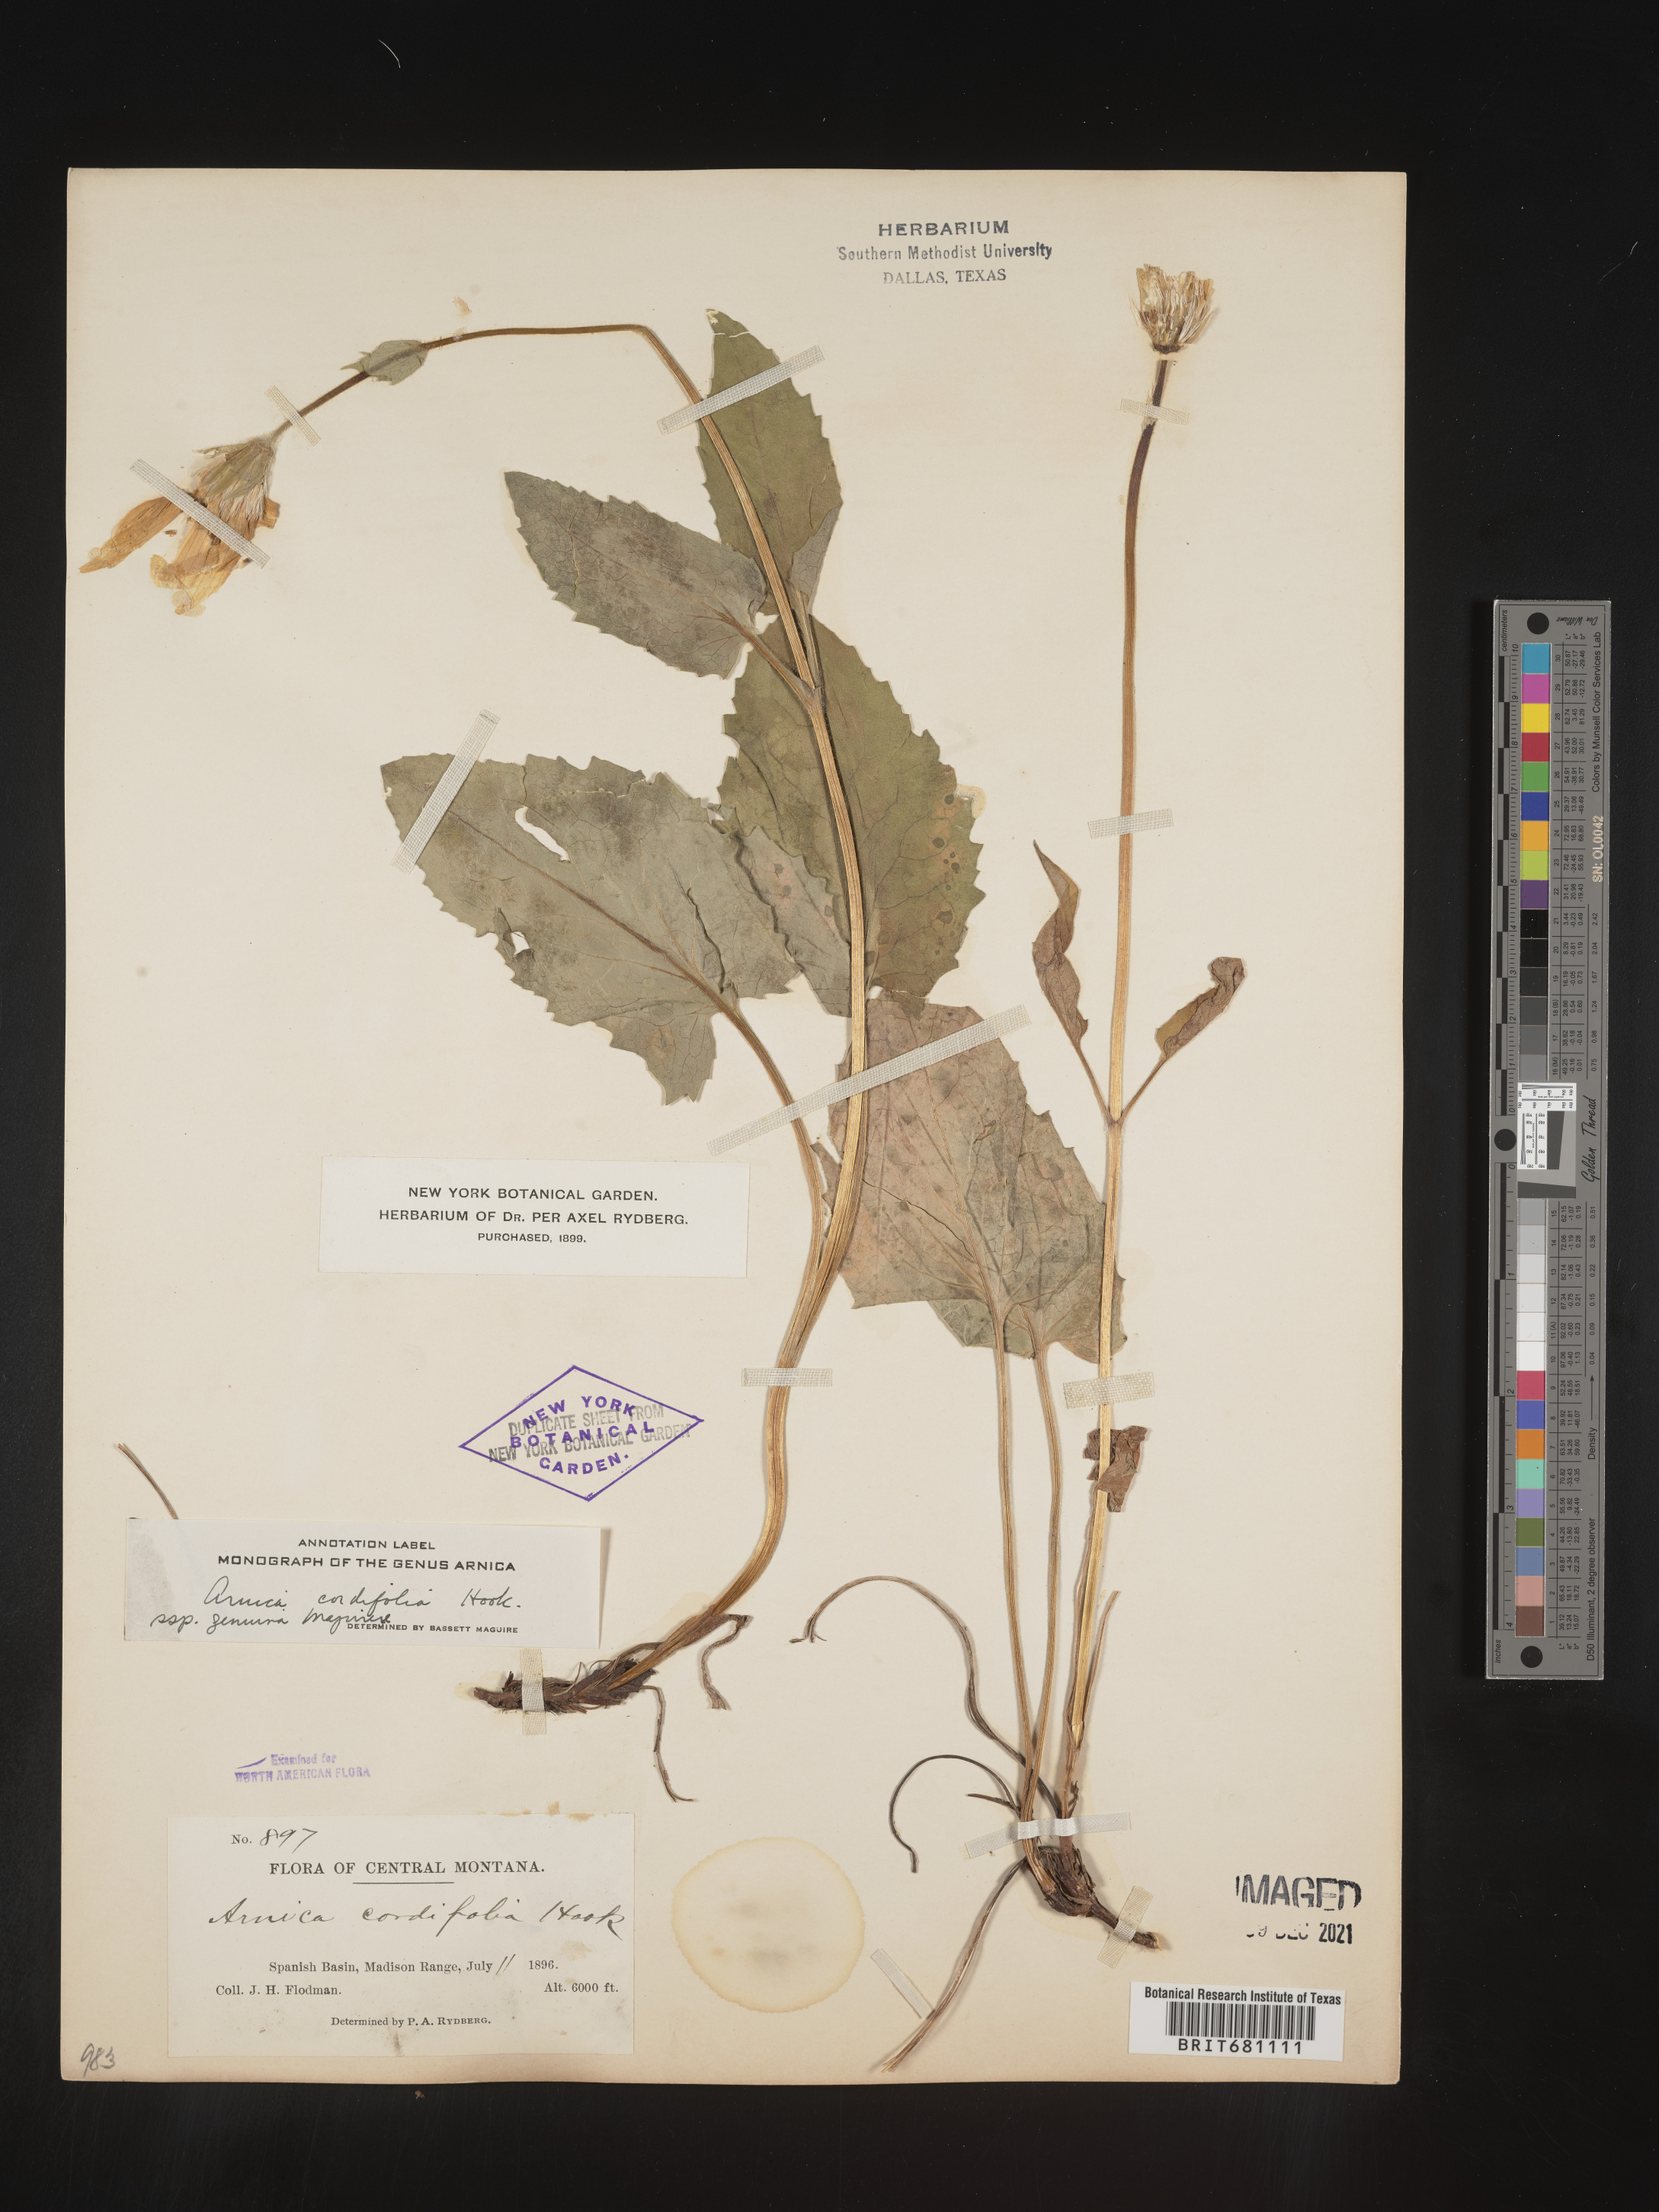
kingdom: Plantae
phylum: Tracheophyta
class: Magnoliopsida
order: Asterales
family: Asteraceae
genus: Arnica
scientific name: Arnica cordifolia
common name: Heart-leaf arnica
